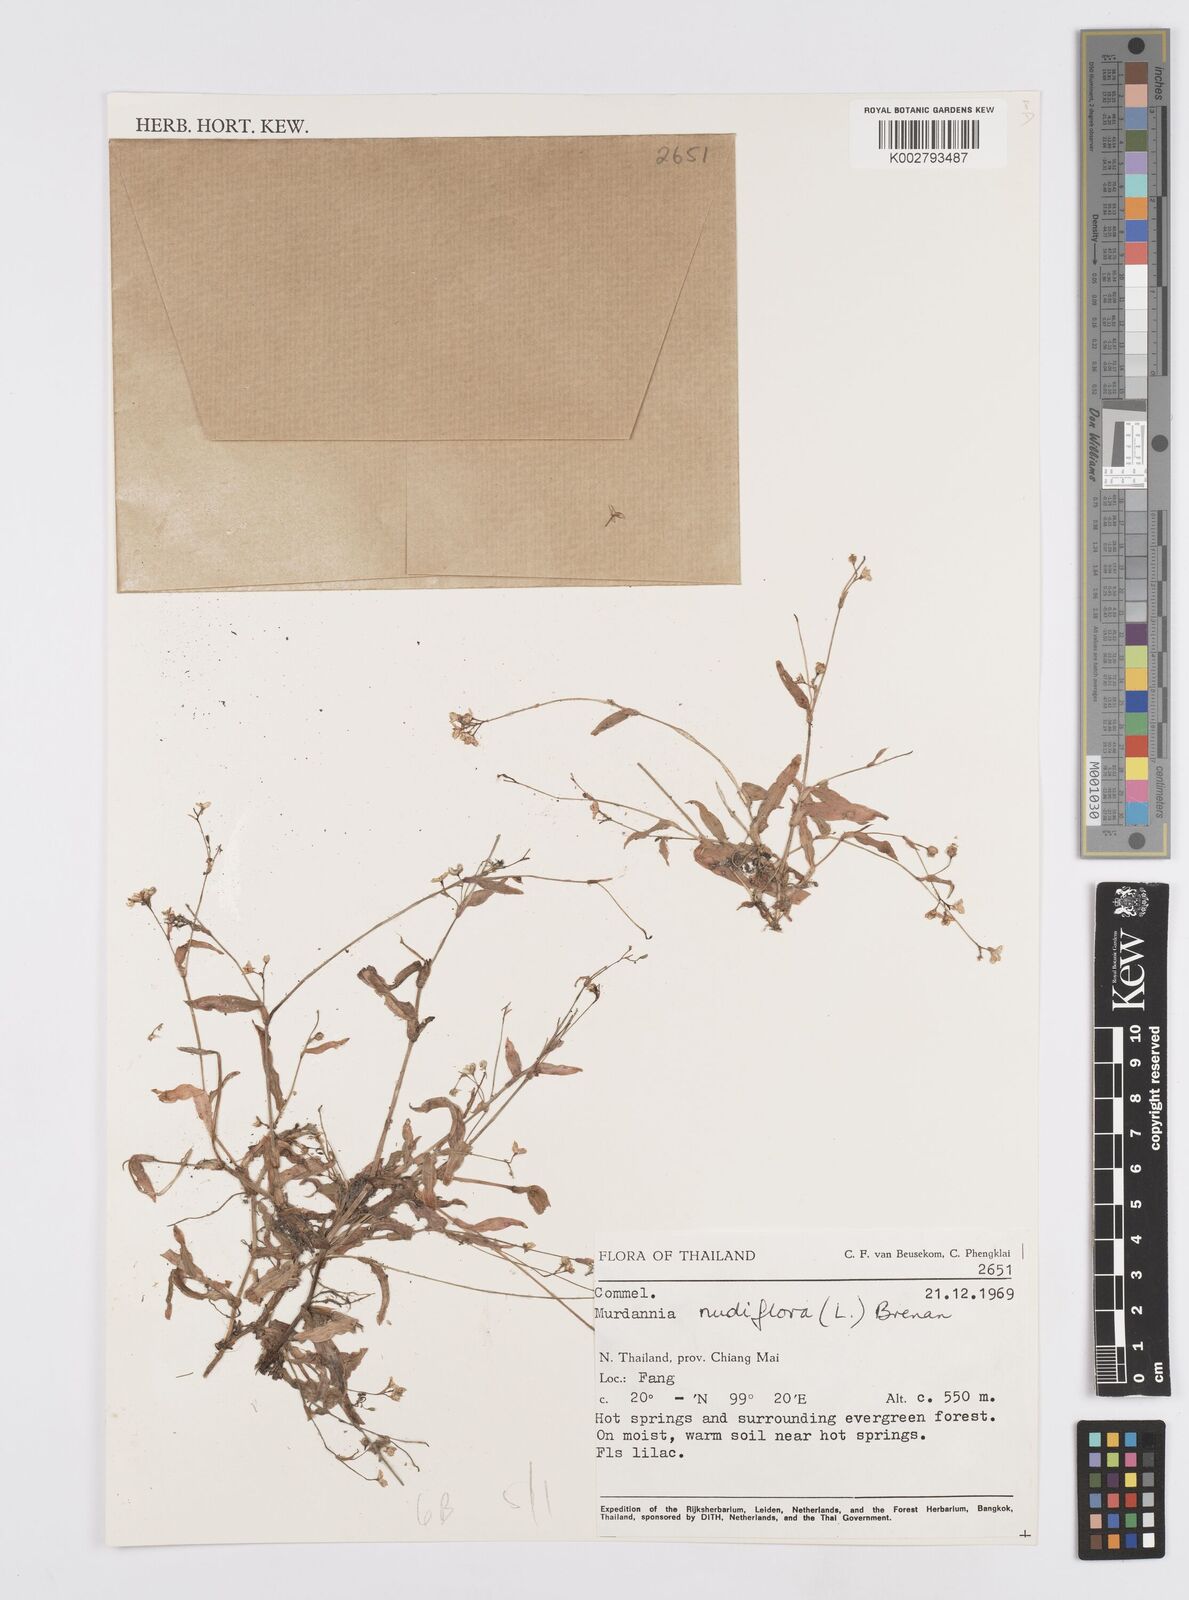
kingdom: Plantae
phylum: Tracheophyta
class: Liliopsida
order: Commelinales
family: Commelinaceae
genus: Murdannia
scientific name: Murdannia nudiflora
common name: Nakedstem dewflower
